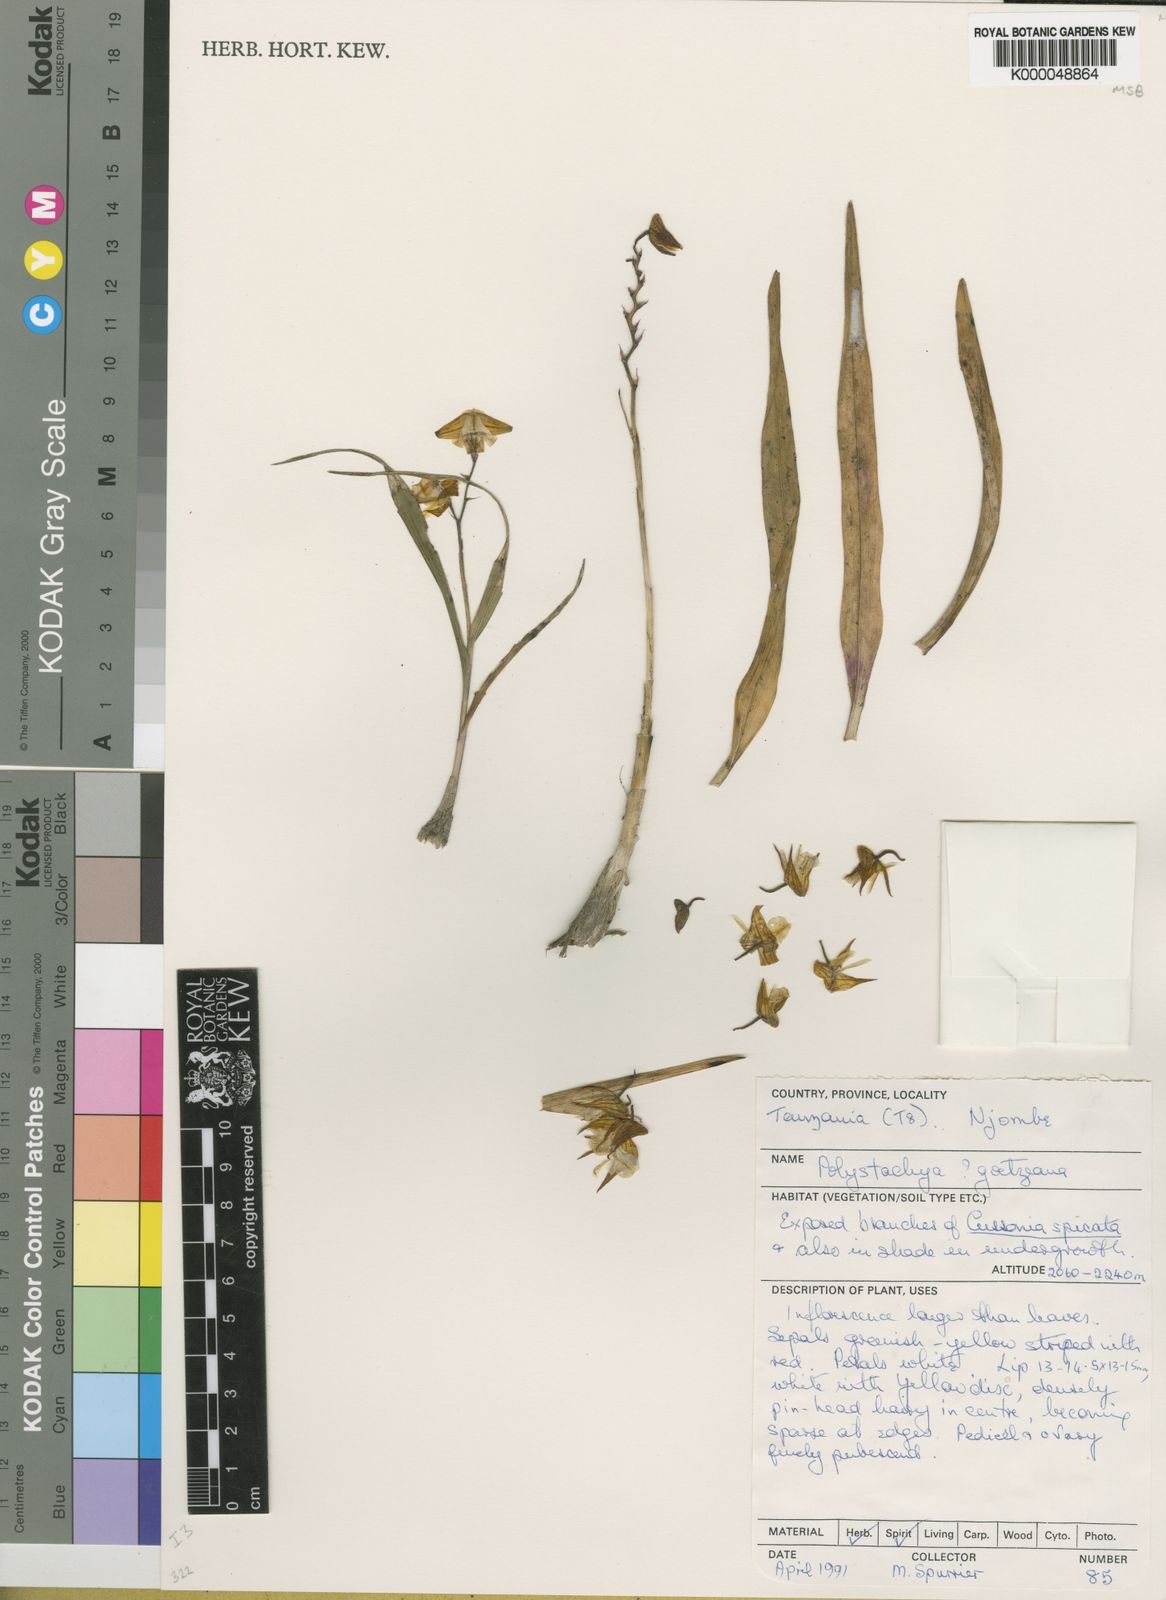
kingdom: Plantae
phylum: Tracheophyta
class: Liliopsida
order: Asparagales
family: Orchidaceae
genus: Polystachya
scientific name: Polystachya goetzeana
